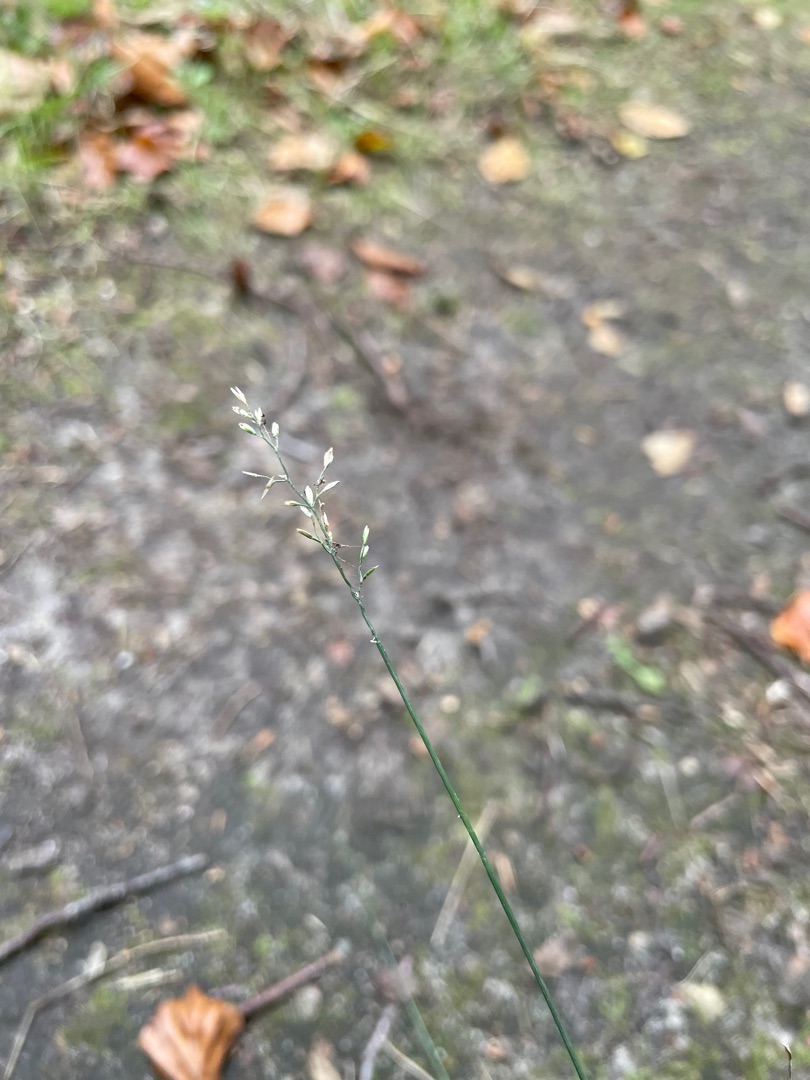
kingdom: Plantae
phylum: Tracheophyta
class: Liliopsida
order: Poales
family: Poaceae
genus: Poa
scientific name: Poa compressa
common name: Fladstrået rapgræs
